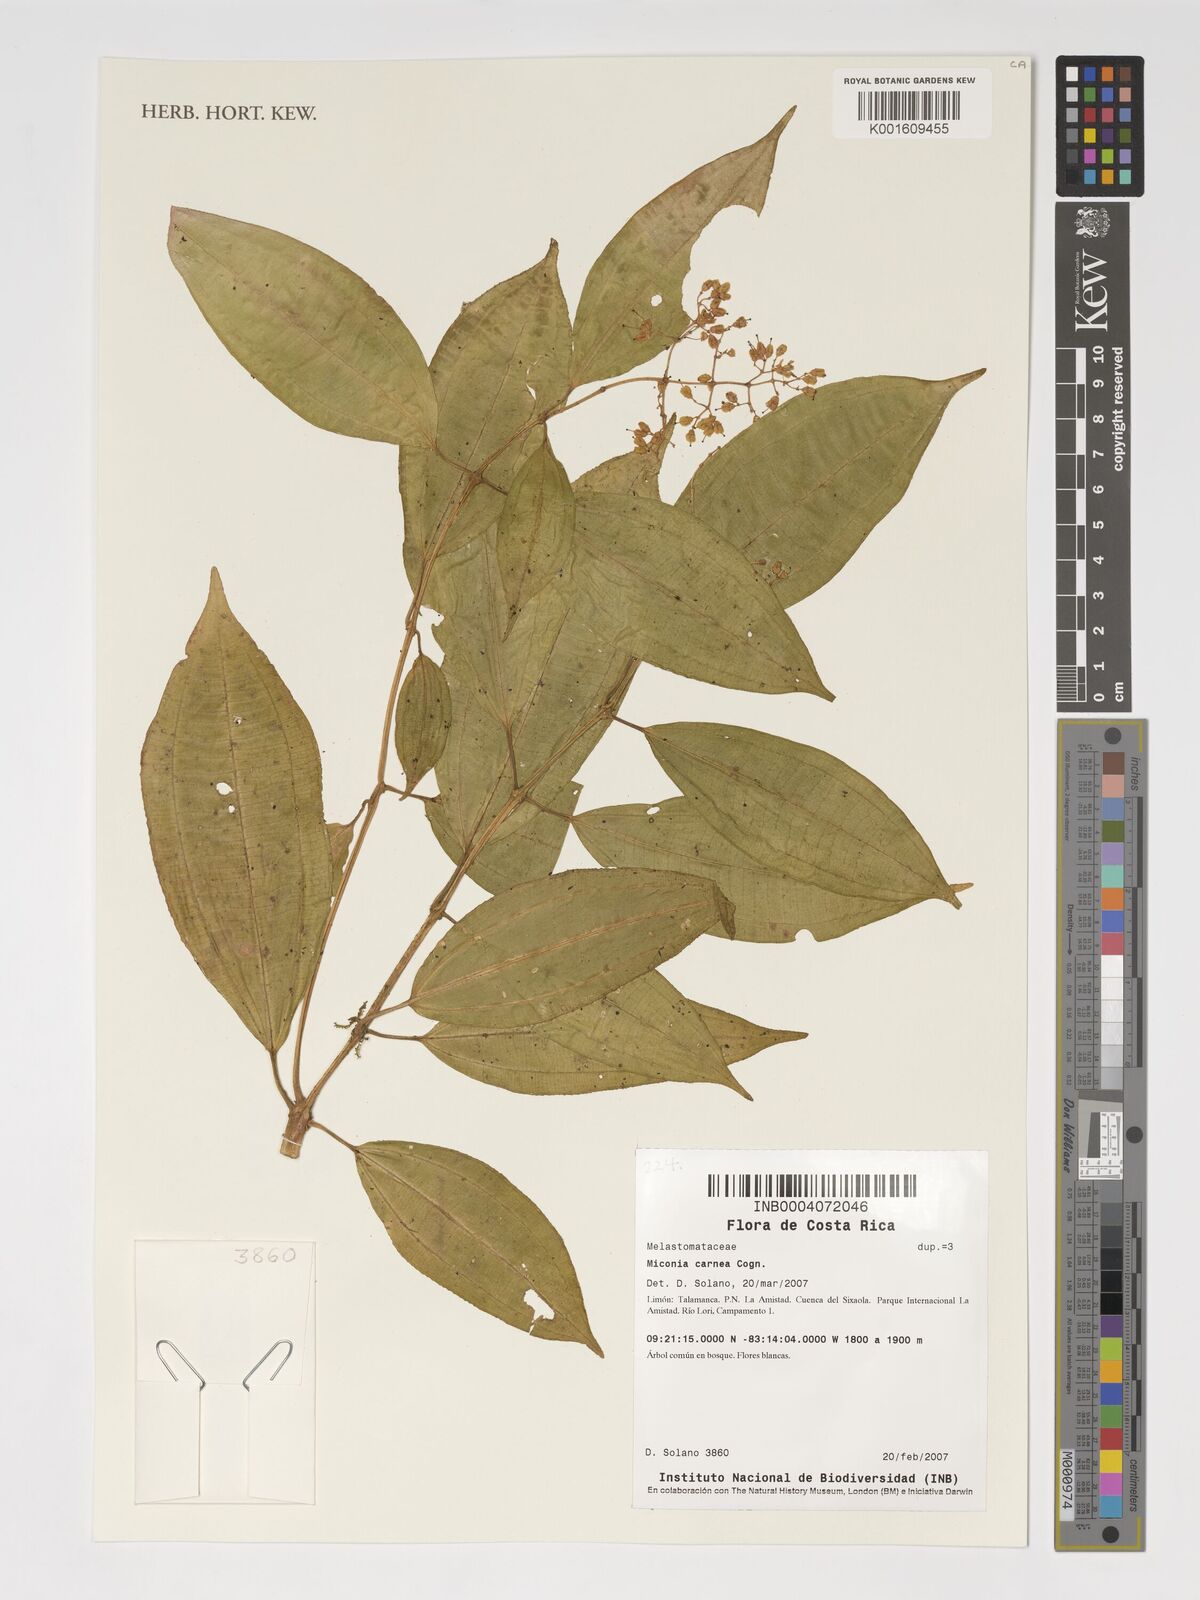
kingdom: Plantae
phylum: Tracheophyta
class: Magnoliopsida
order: Myrtales
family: Melastomataceae
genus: Miconia
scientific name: Miconia carnea
